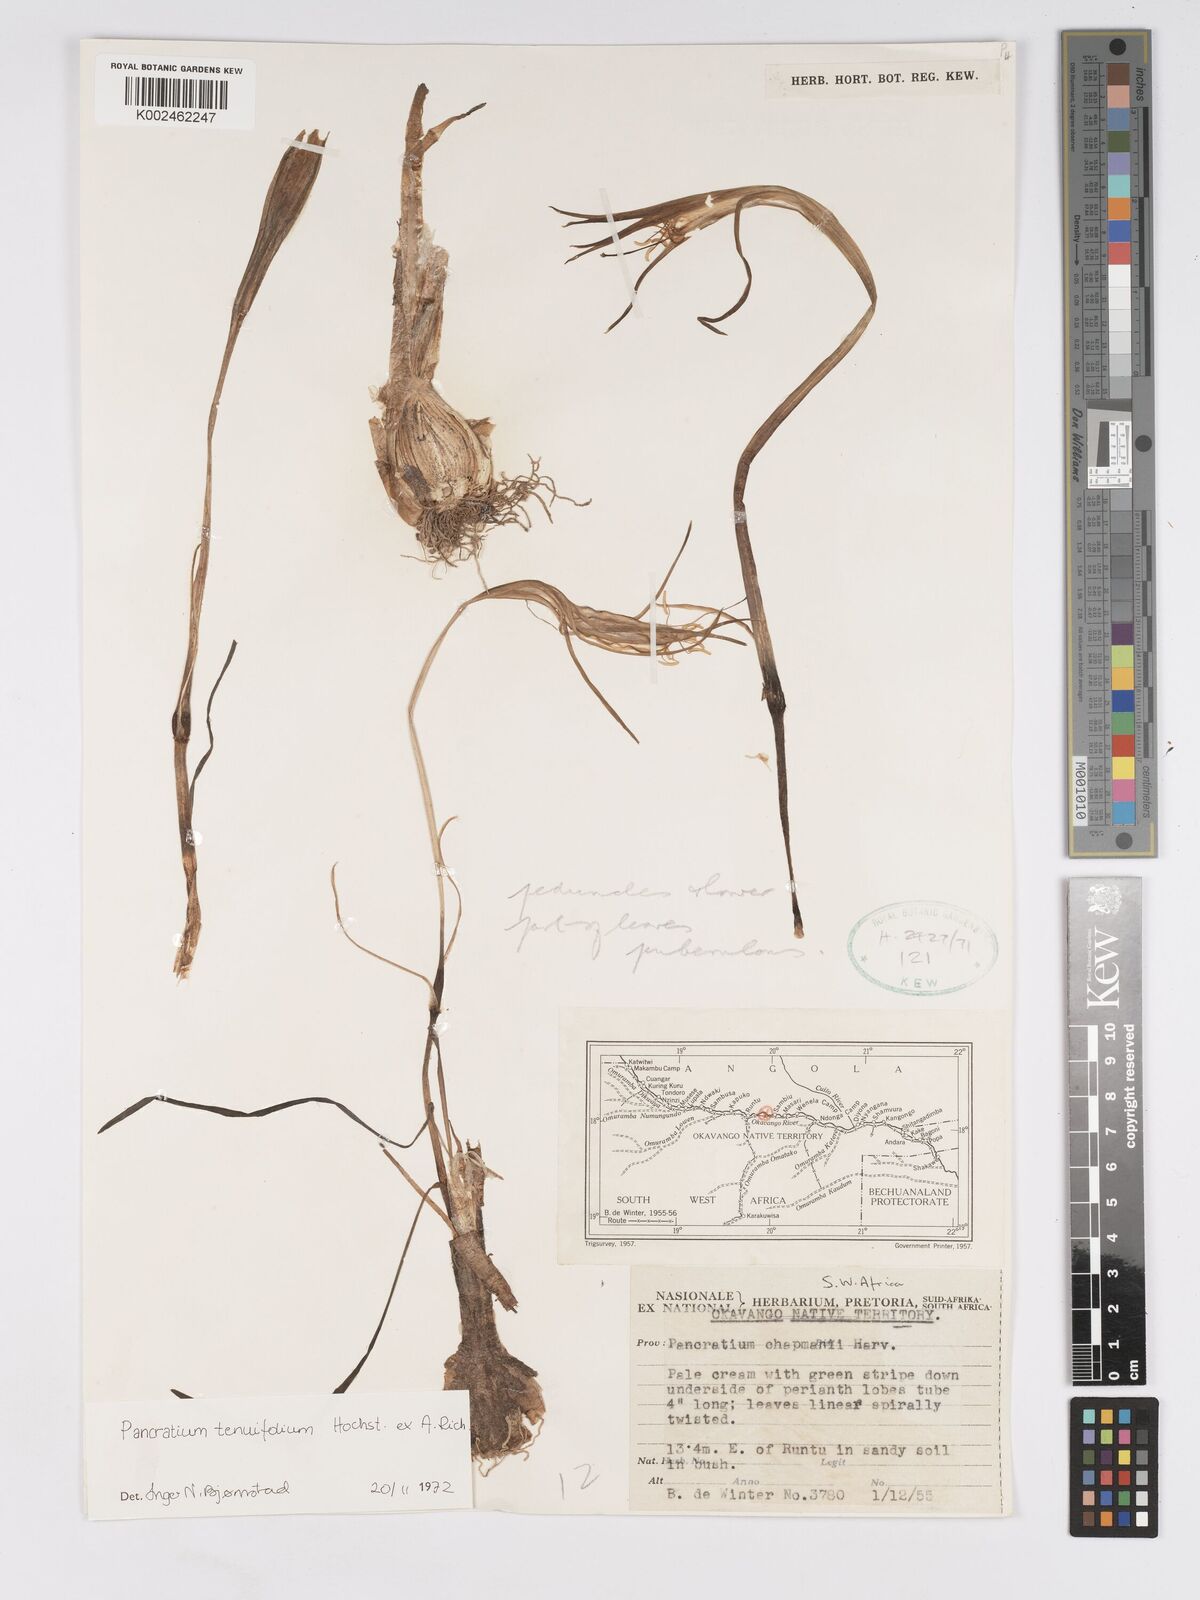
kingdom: Plantae
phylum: Tracheophyta
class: Liliopsida
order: Asparagales
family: Amaryllidaceae
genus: Pancratium
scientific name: Pancratium tenuifolium
